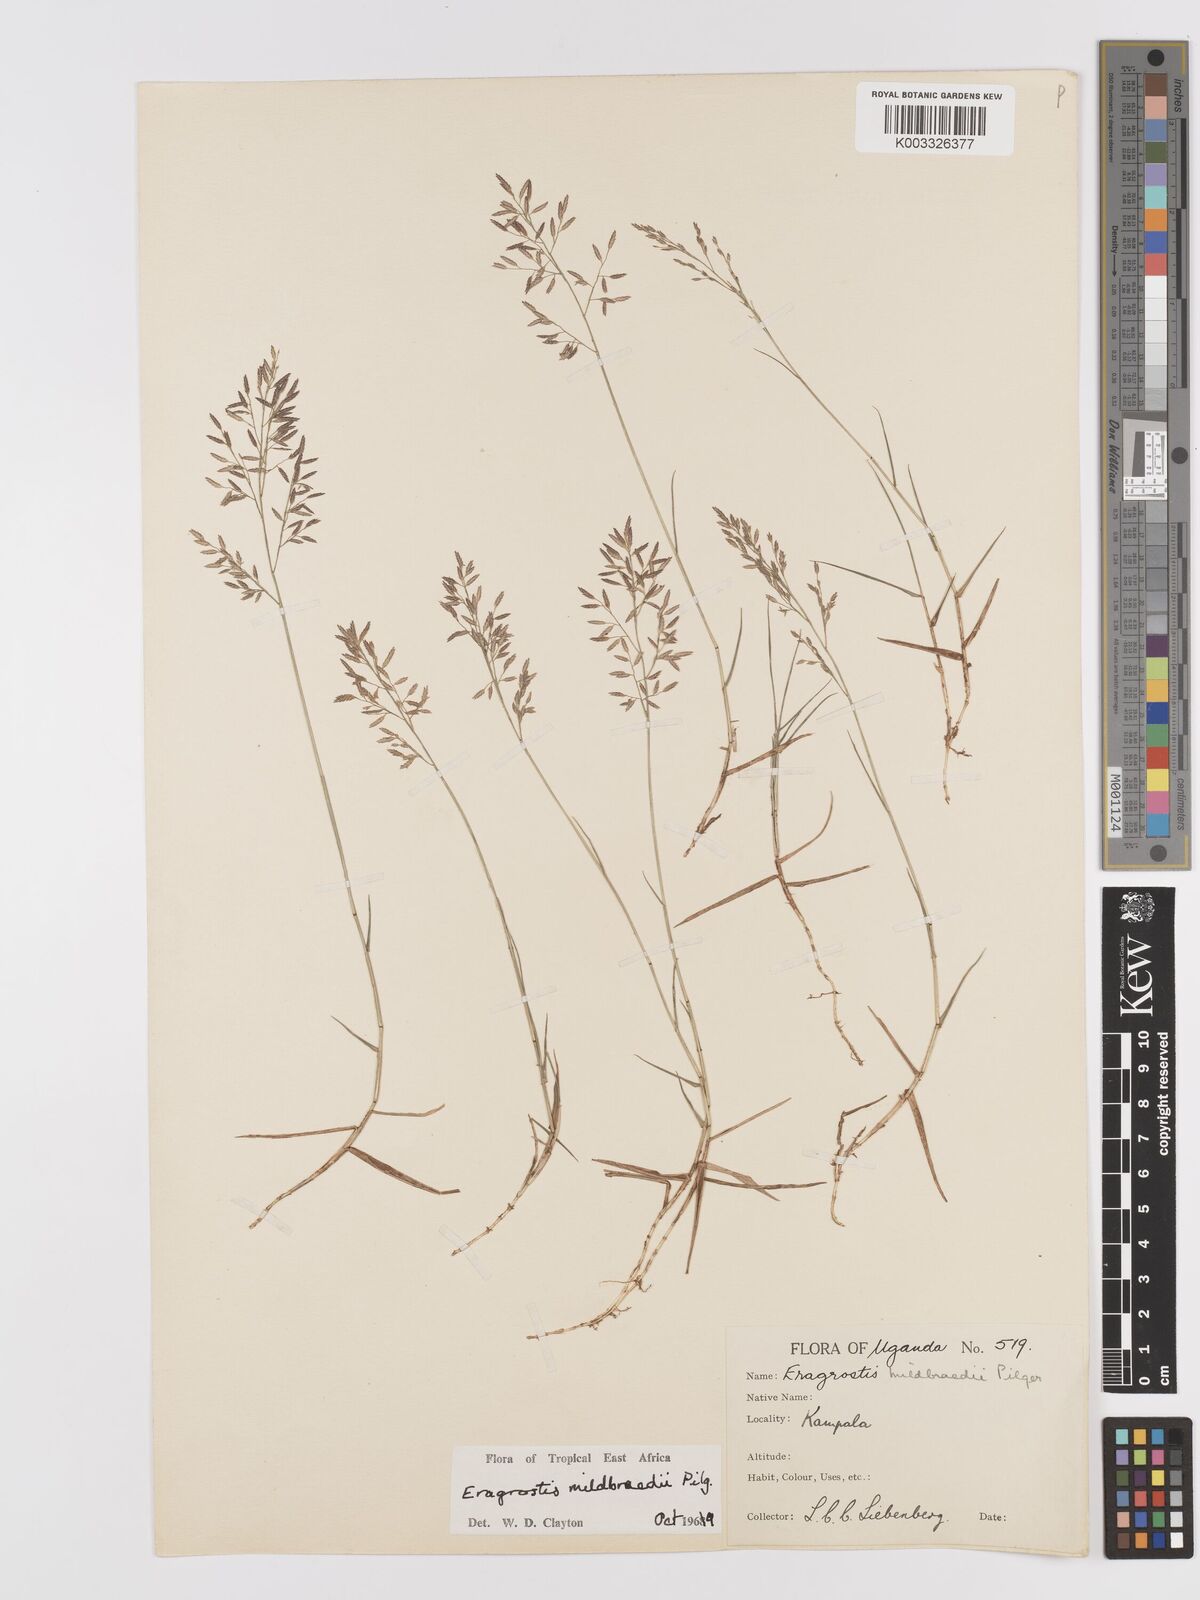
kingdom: Plantae
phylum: Tracheophyta
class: Liliopsida
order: Poales
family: Poaceae
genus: Eragrostis
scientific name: Eragrostis mildbraedii
